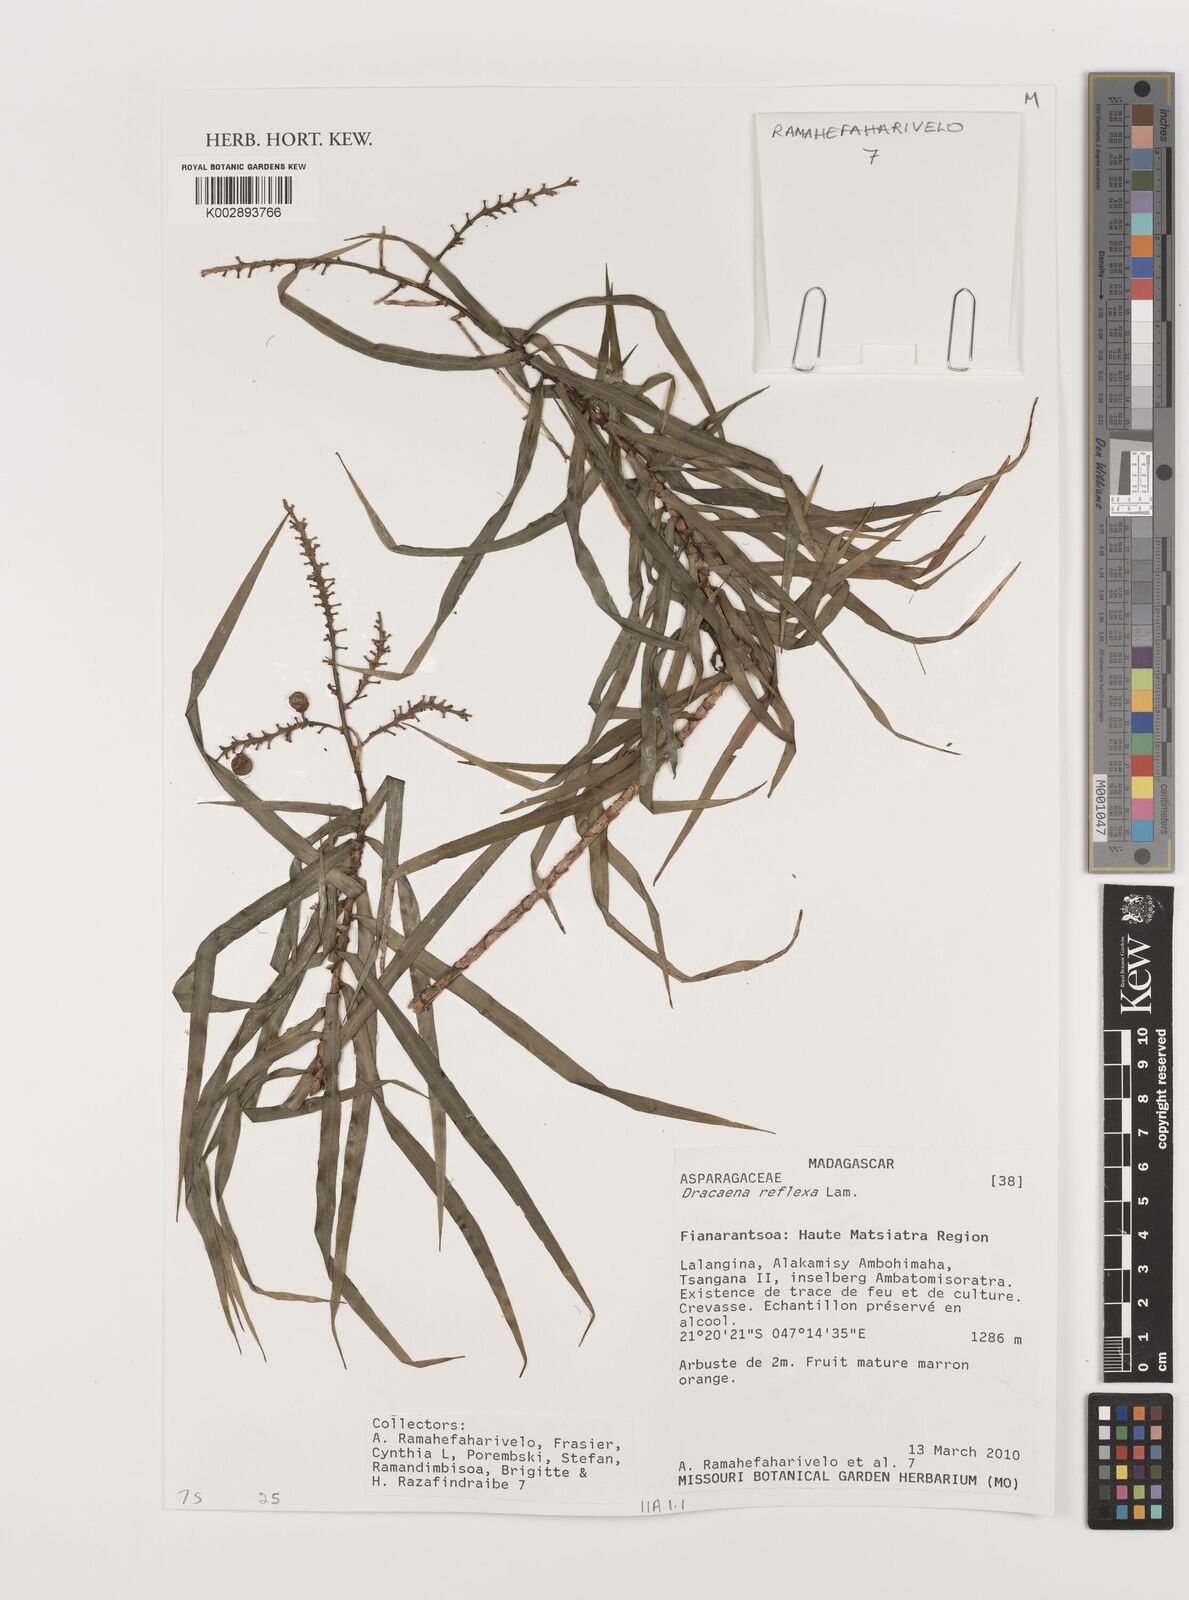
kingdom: Plantae
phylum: Tracheophyta
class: Liliopsida
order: Asparagales
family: Asparagaceae
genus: Dracaena
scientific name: Dracaena reflexa
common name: Song-of-india
